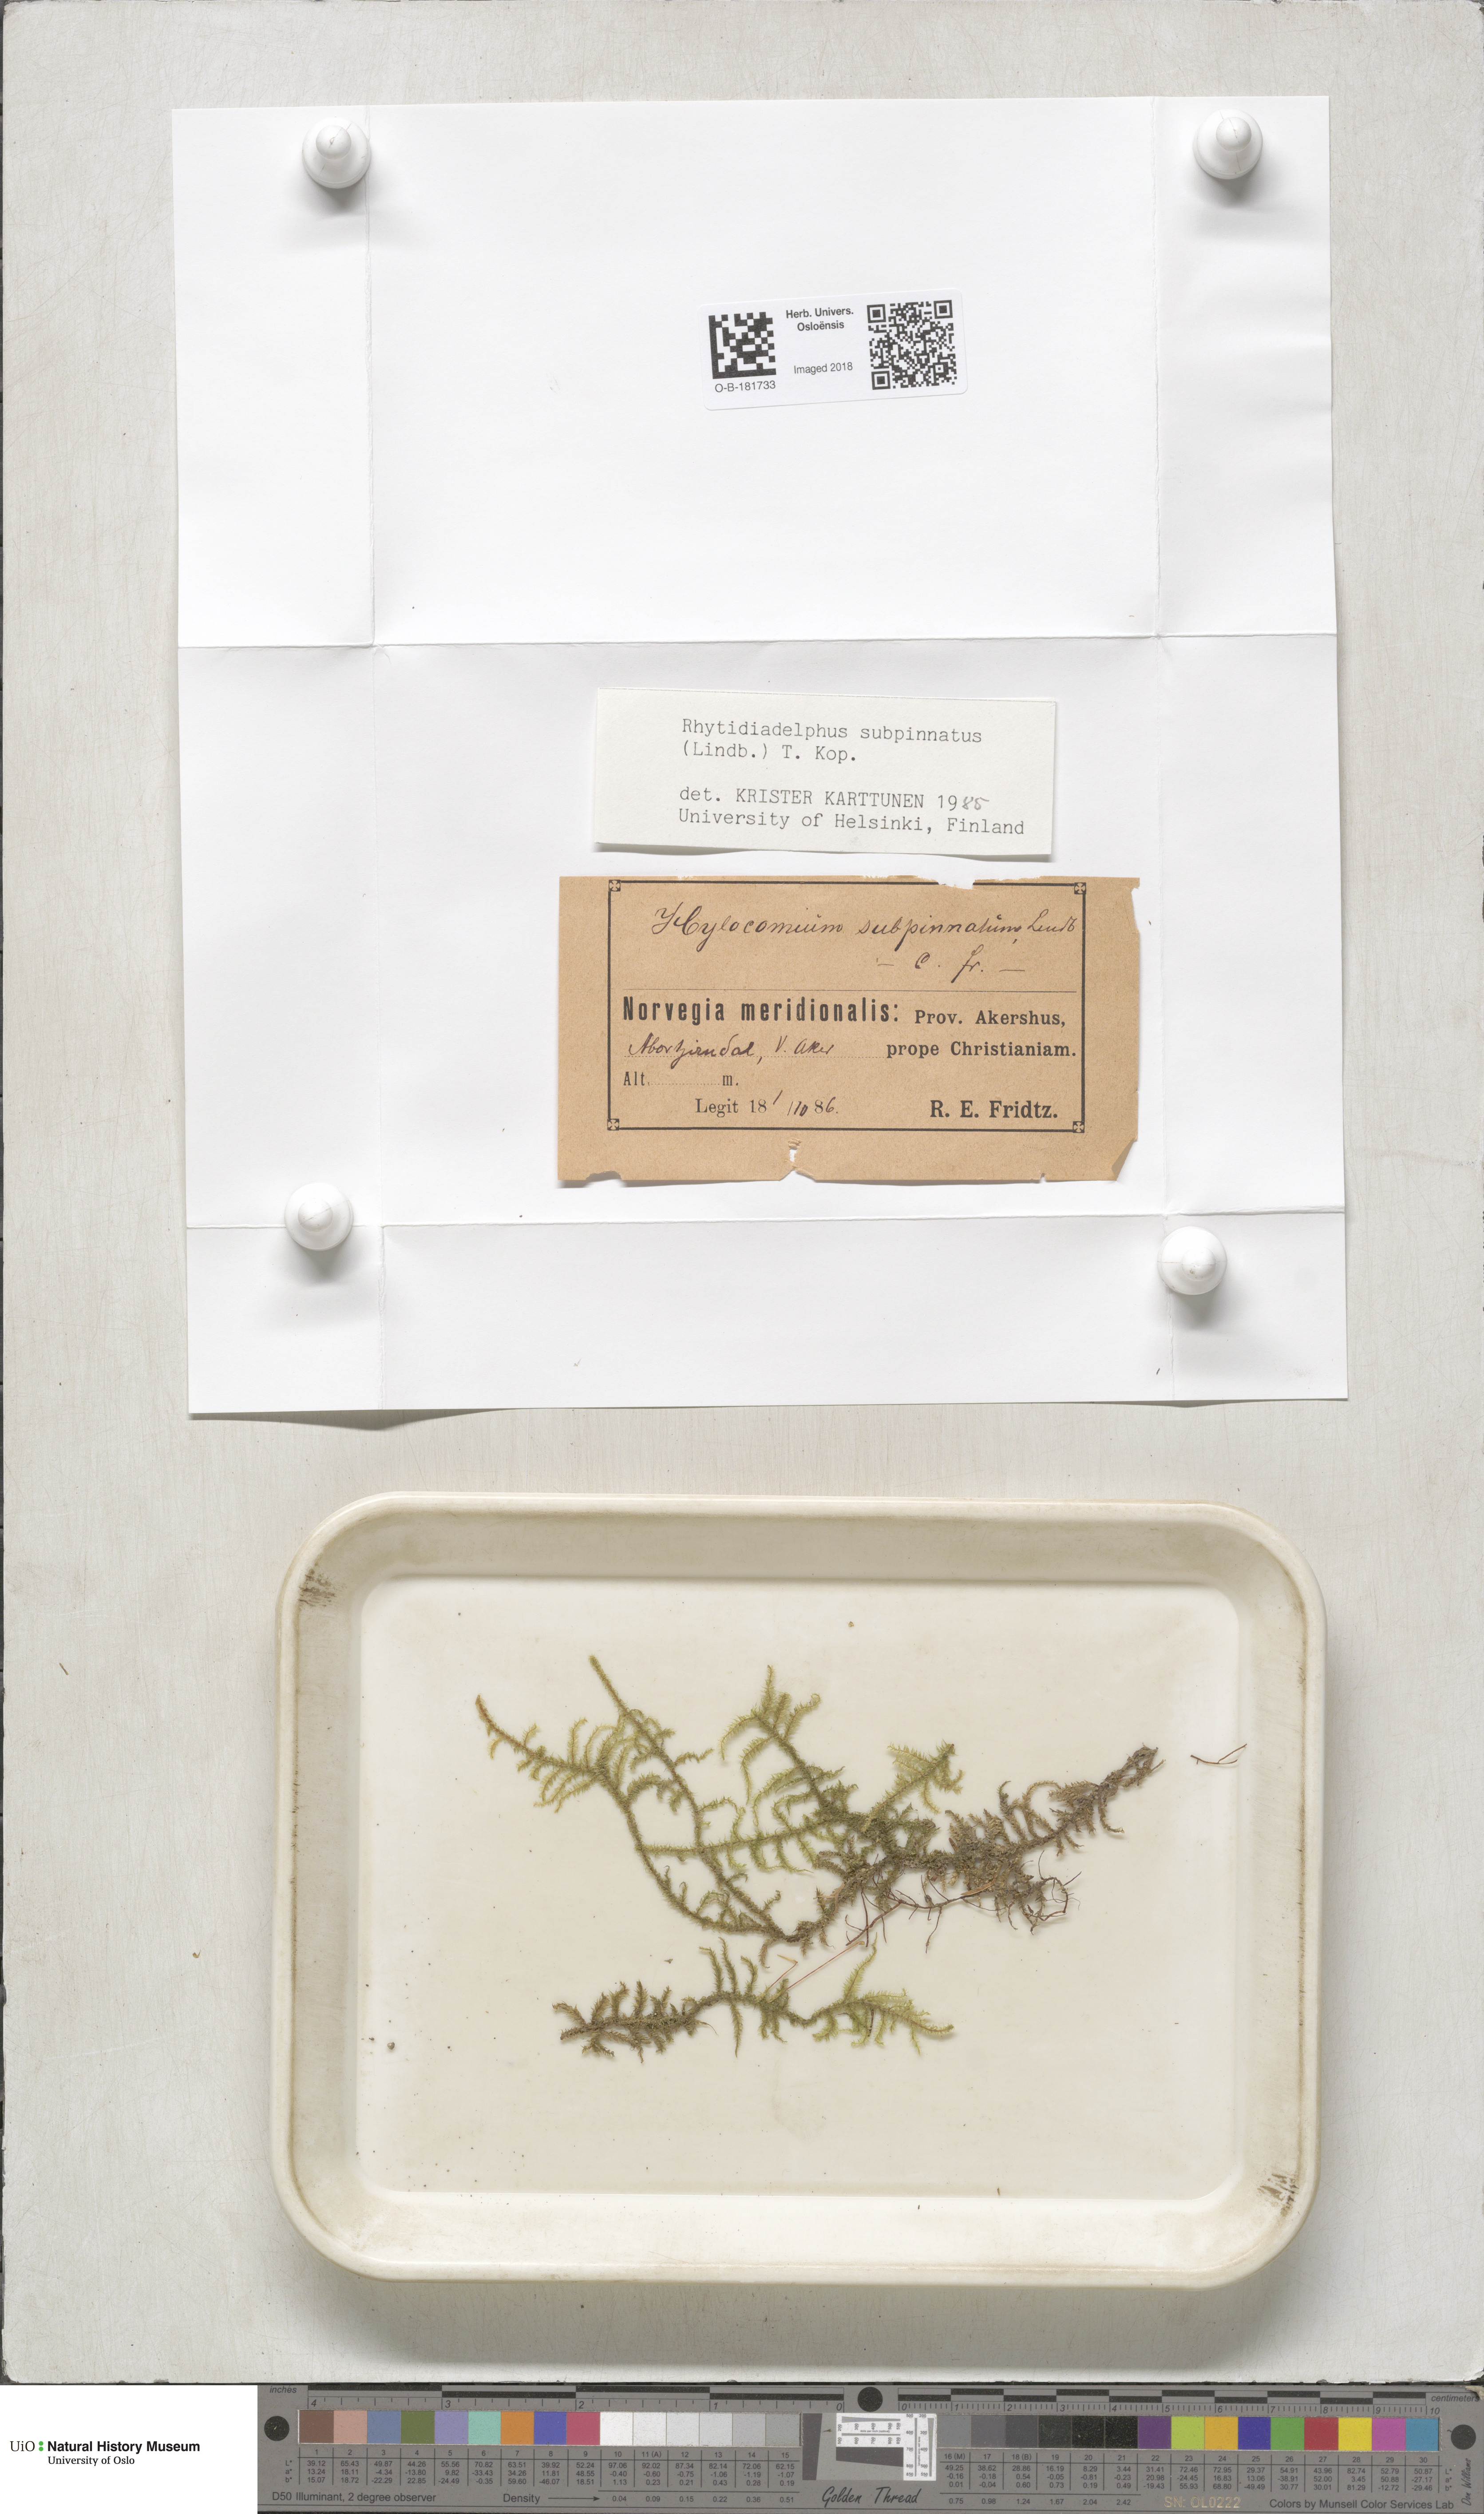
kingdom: Plantae
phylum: Bryophyta
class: Bryopsida
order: Hypnales
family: Hylocomiaceae
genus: Rhytidiadelphus
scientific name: Rhytidiadelphus subpinnatus
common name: Subpinnate gooseneck moss
